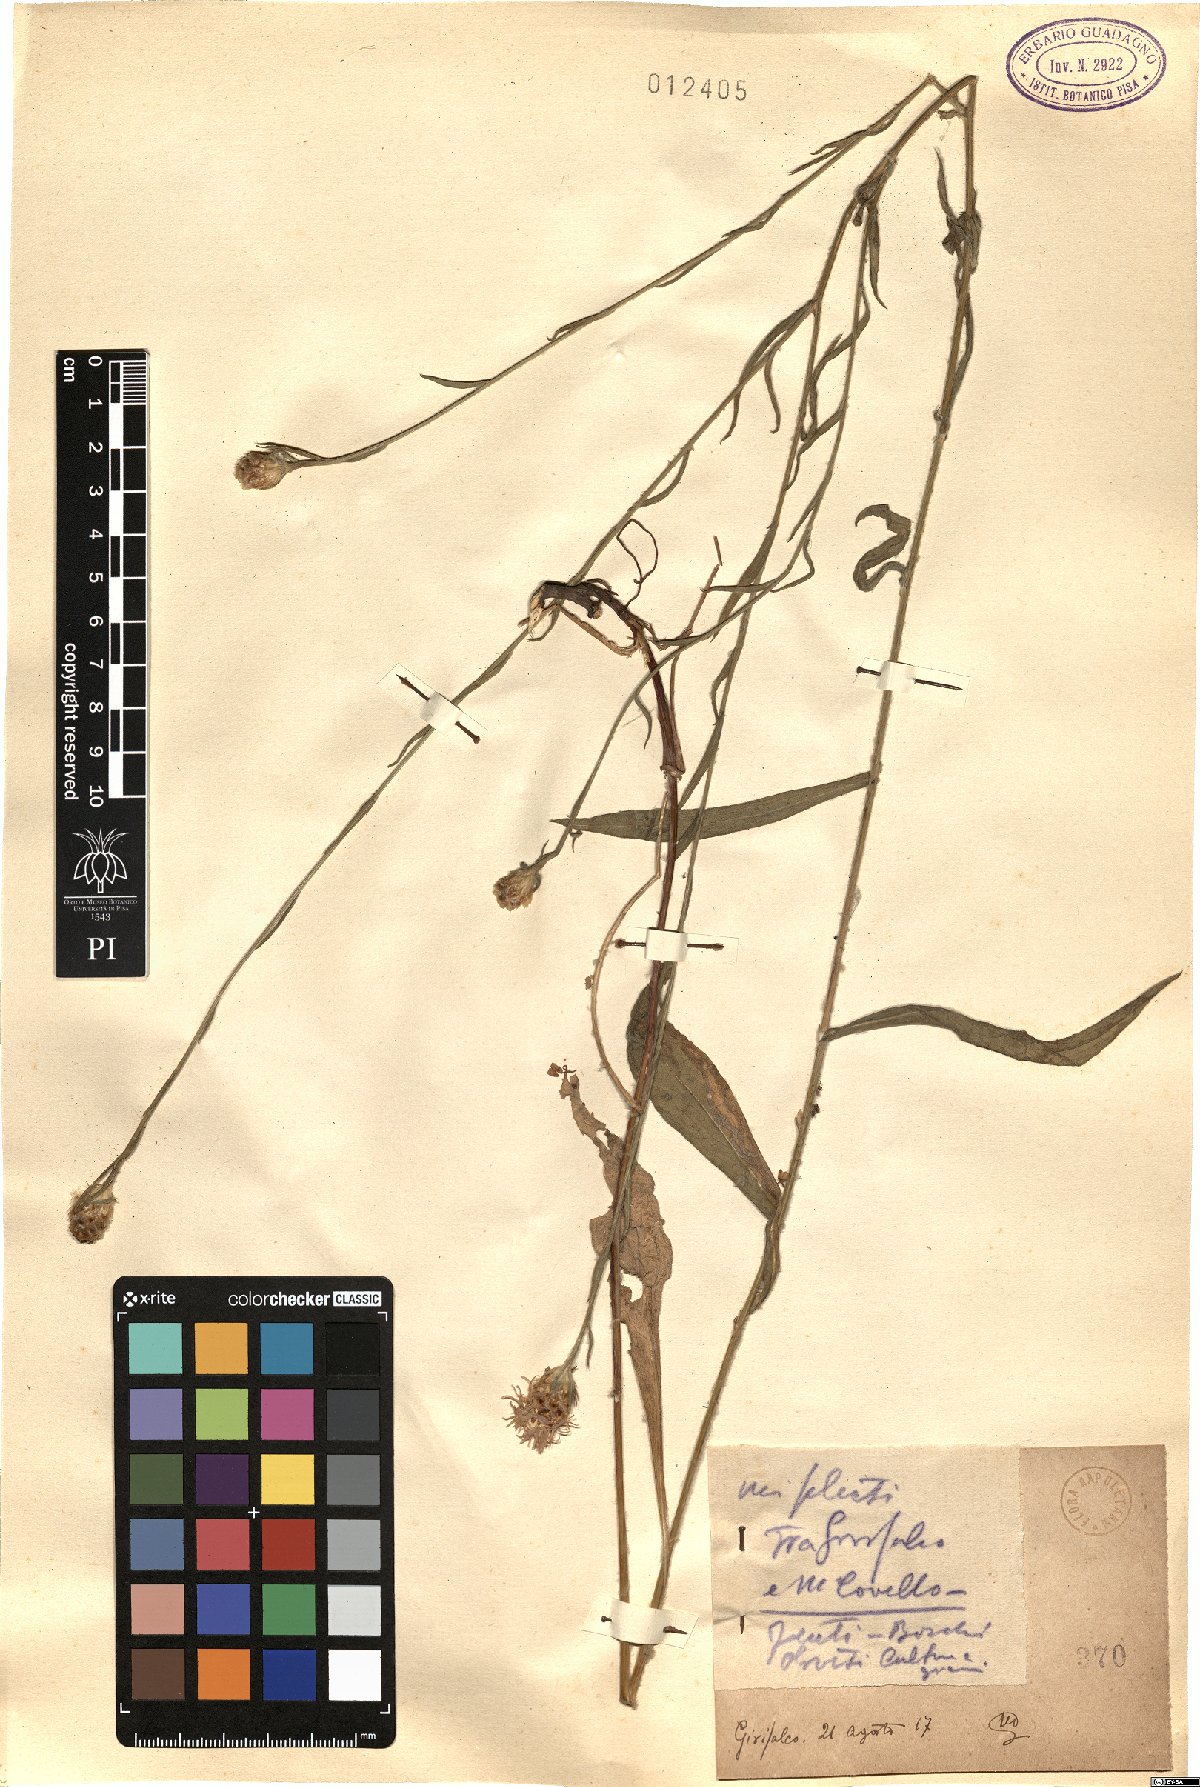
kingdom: Plantae
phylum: Tracheophyta
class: Magnoliopsida
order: Asterales
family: Asteraceae
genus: Centaurea
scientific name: Centaurea
